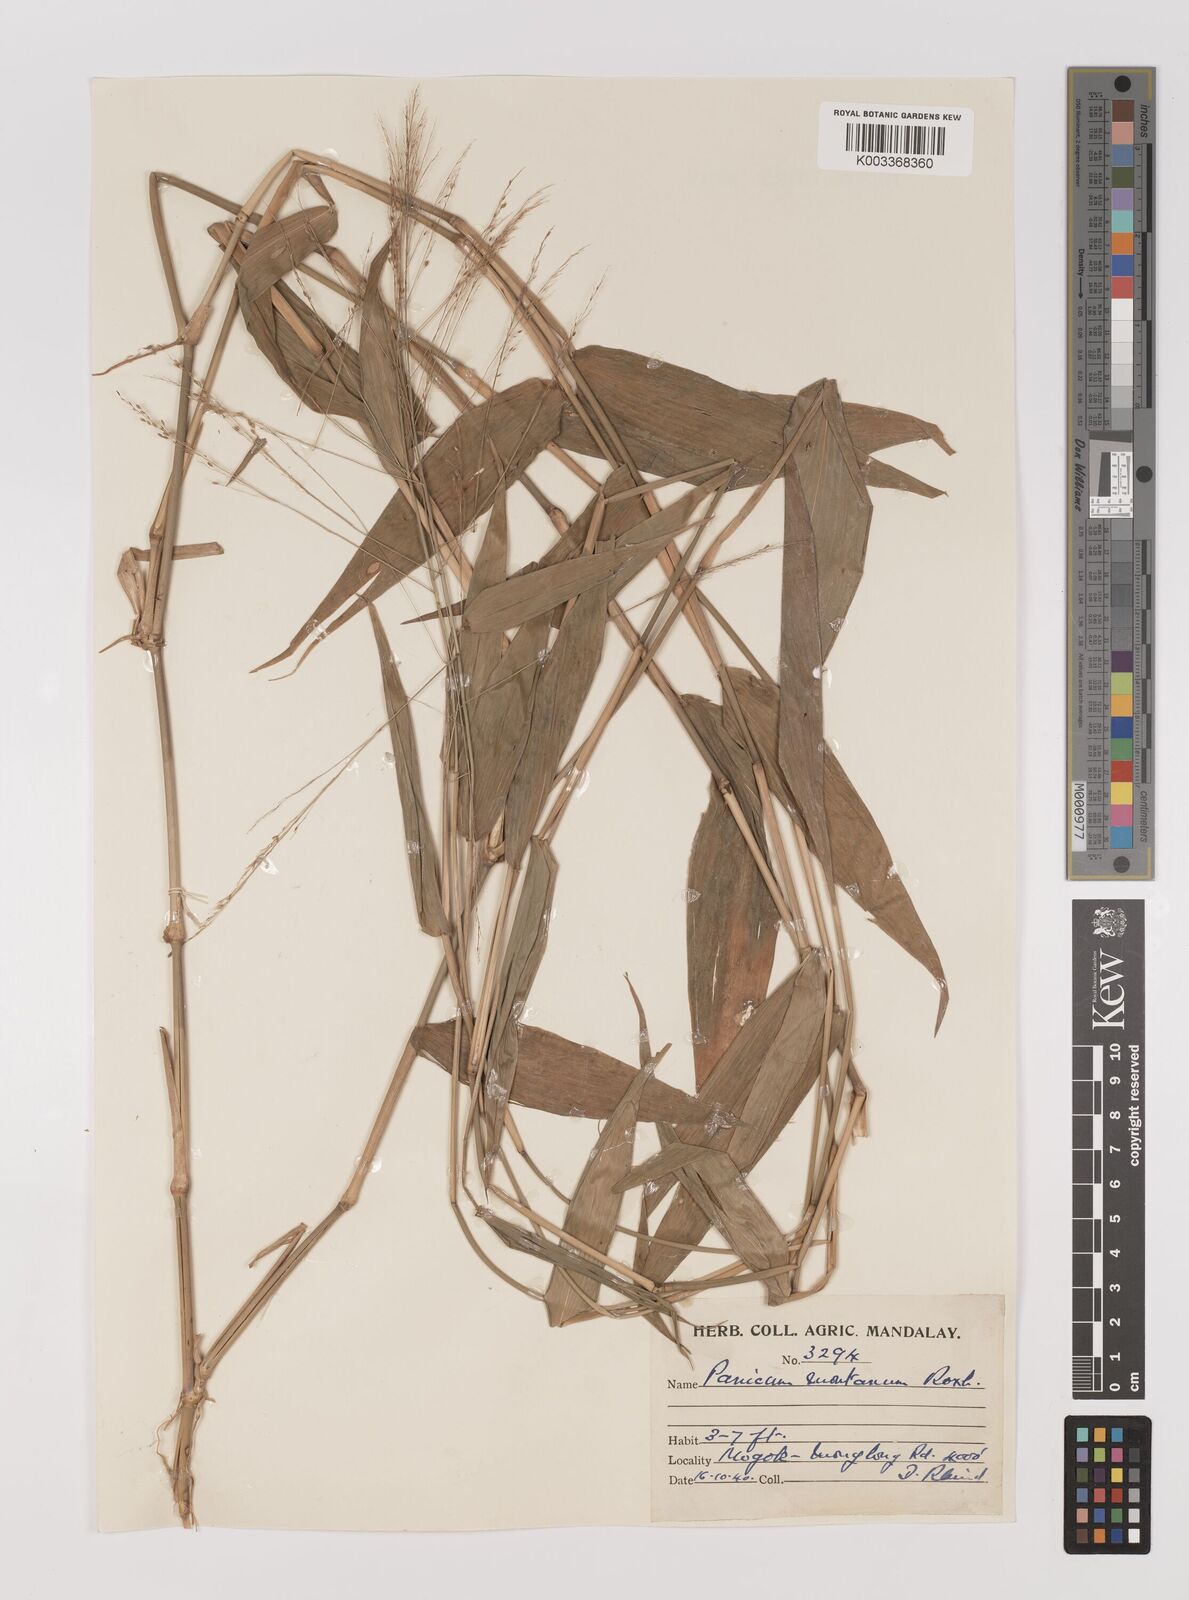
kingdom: Plantae
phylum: Tracheophyta
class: Liliopsida
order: Poales
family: Poaceae
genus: Panicum
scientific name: Panicum notatum
